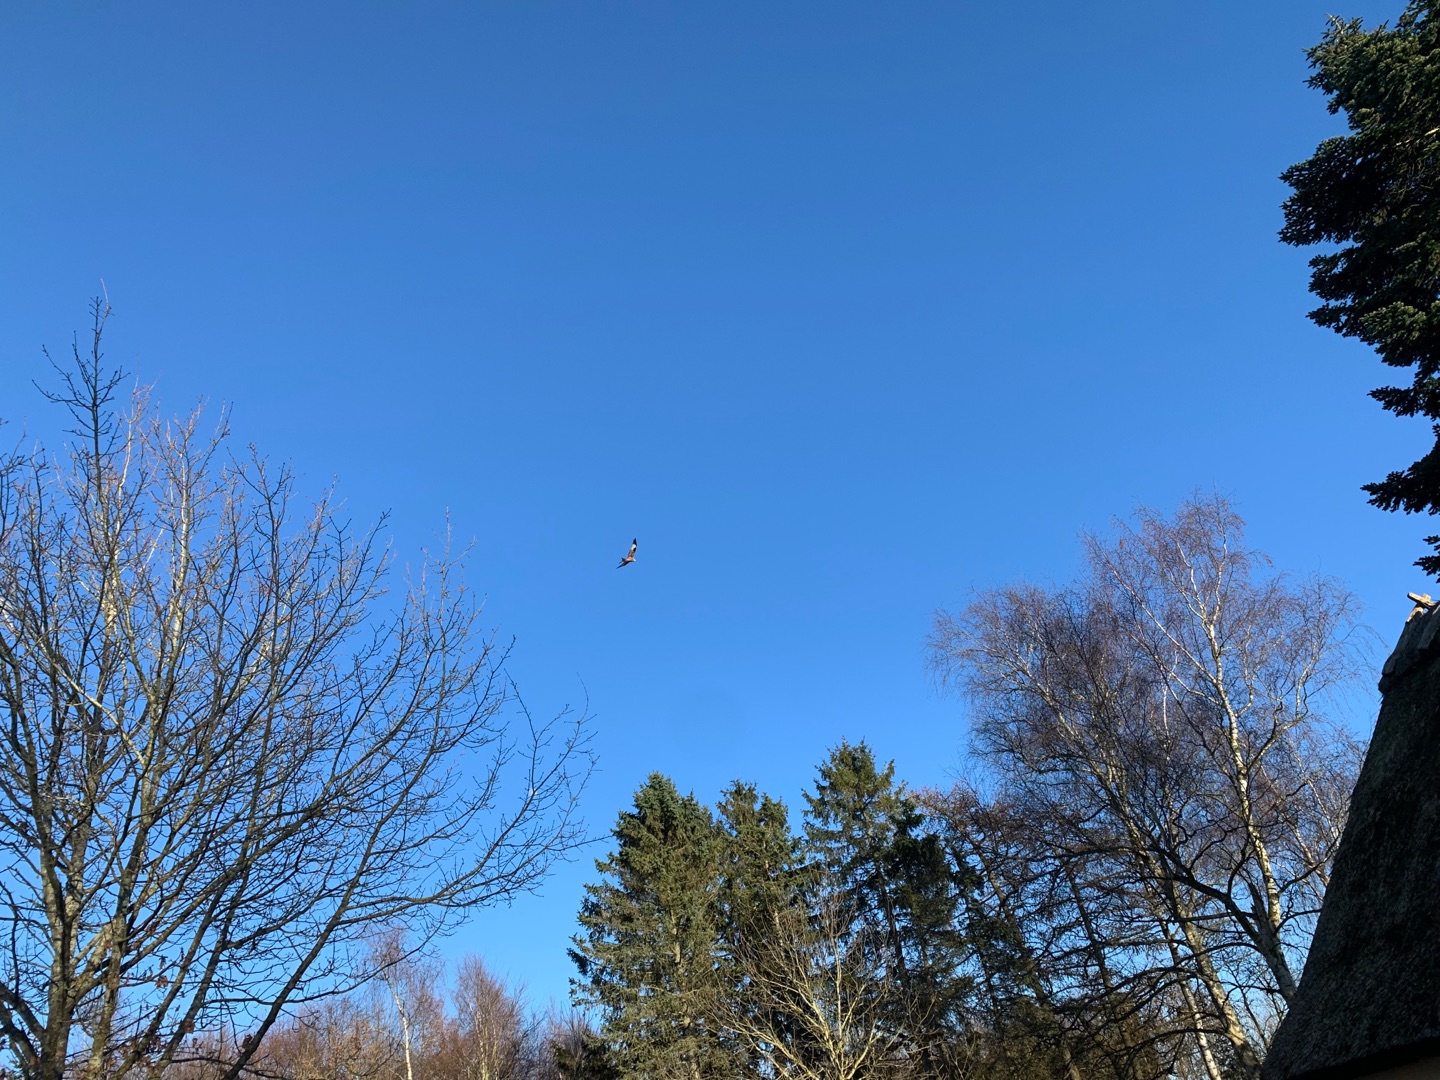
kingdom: Animalia
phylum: Chordata
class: Aves
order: Accipitriformes
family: Accipitridae
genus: Milvus
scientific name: Milvus milvus
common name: Rød glente
